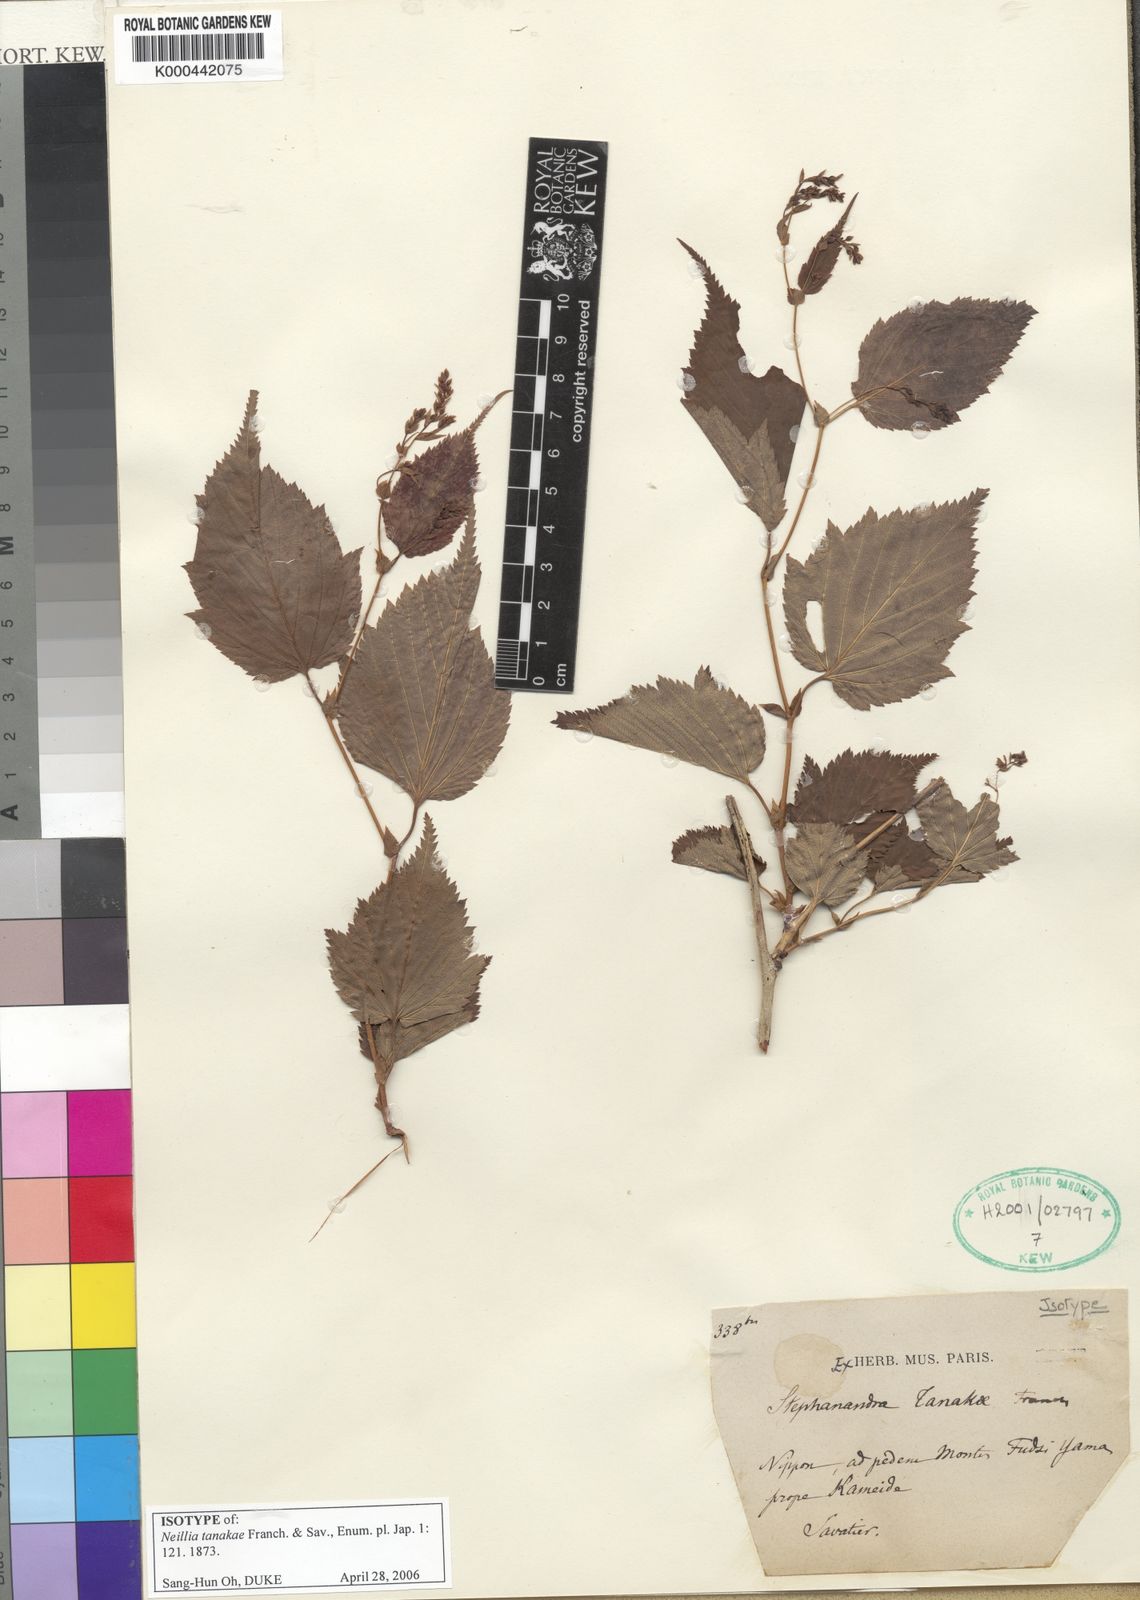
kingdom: Plantae
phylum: Tracheophyta
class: Magnoliopsida
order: Rosales
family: Rosaceae
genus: Neillia
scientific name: Neillia
